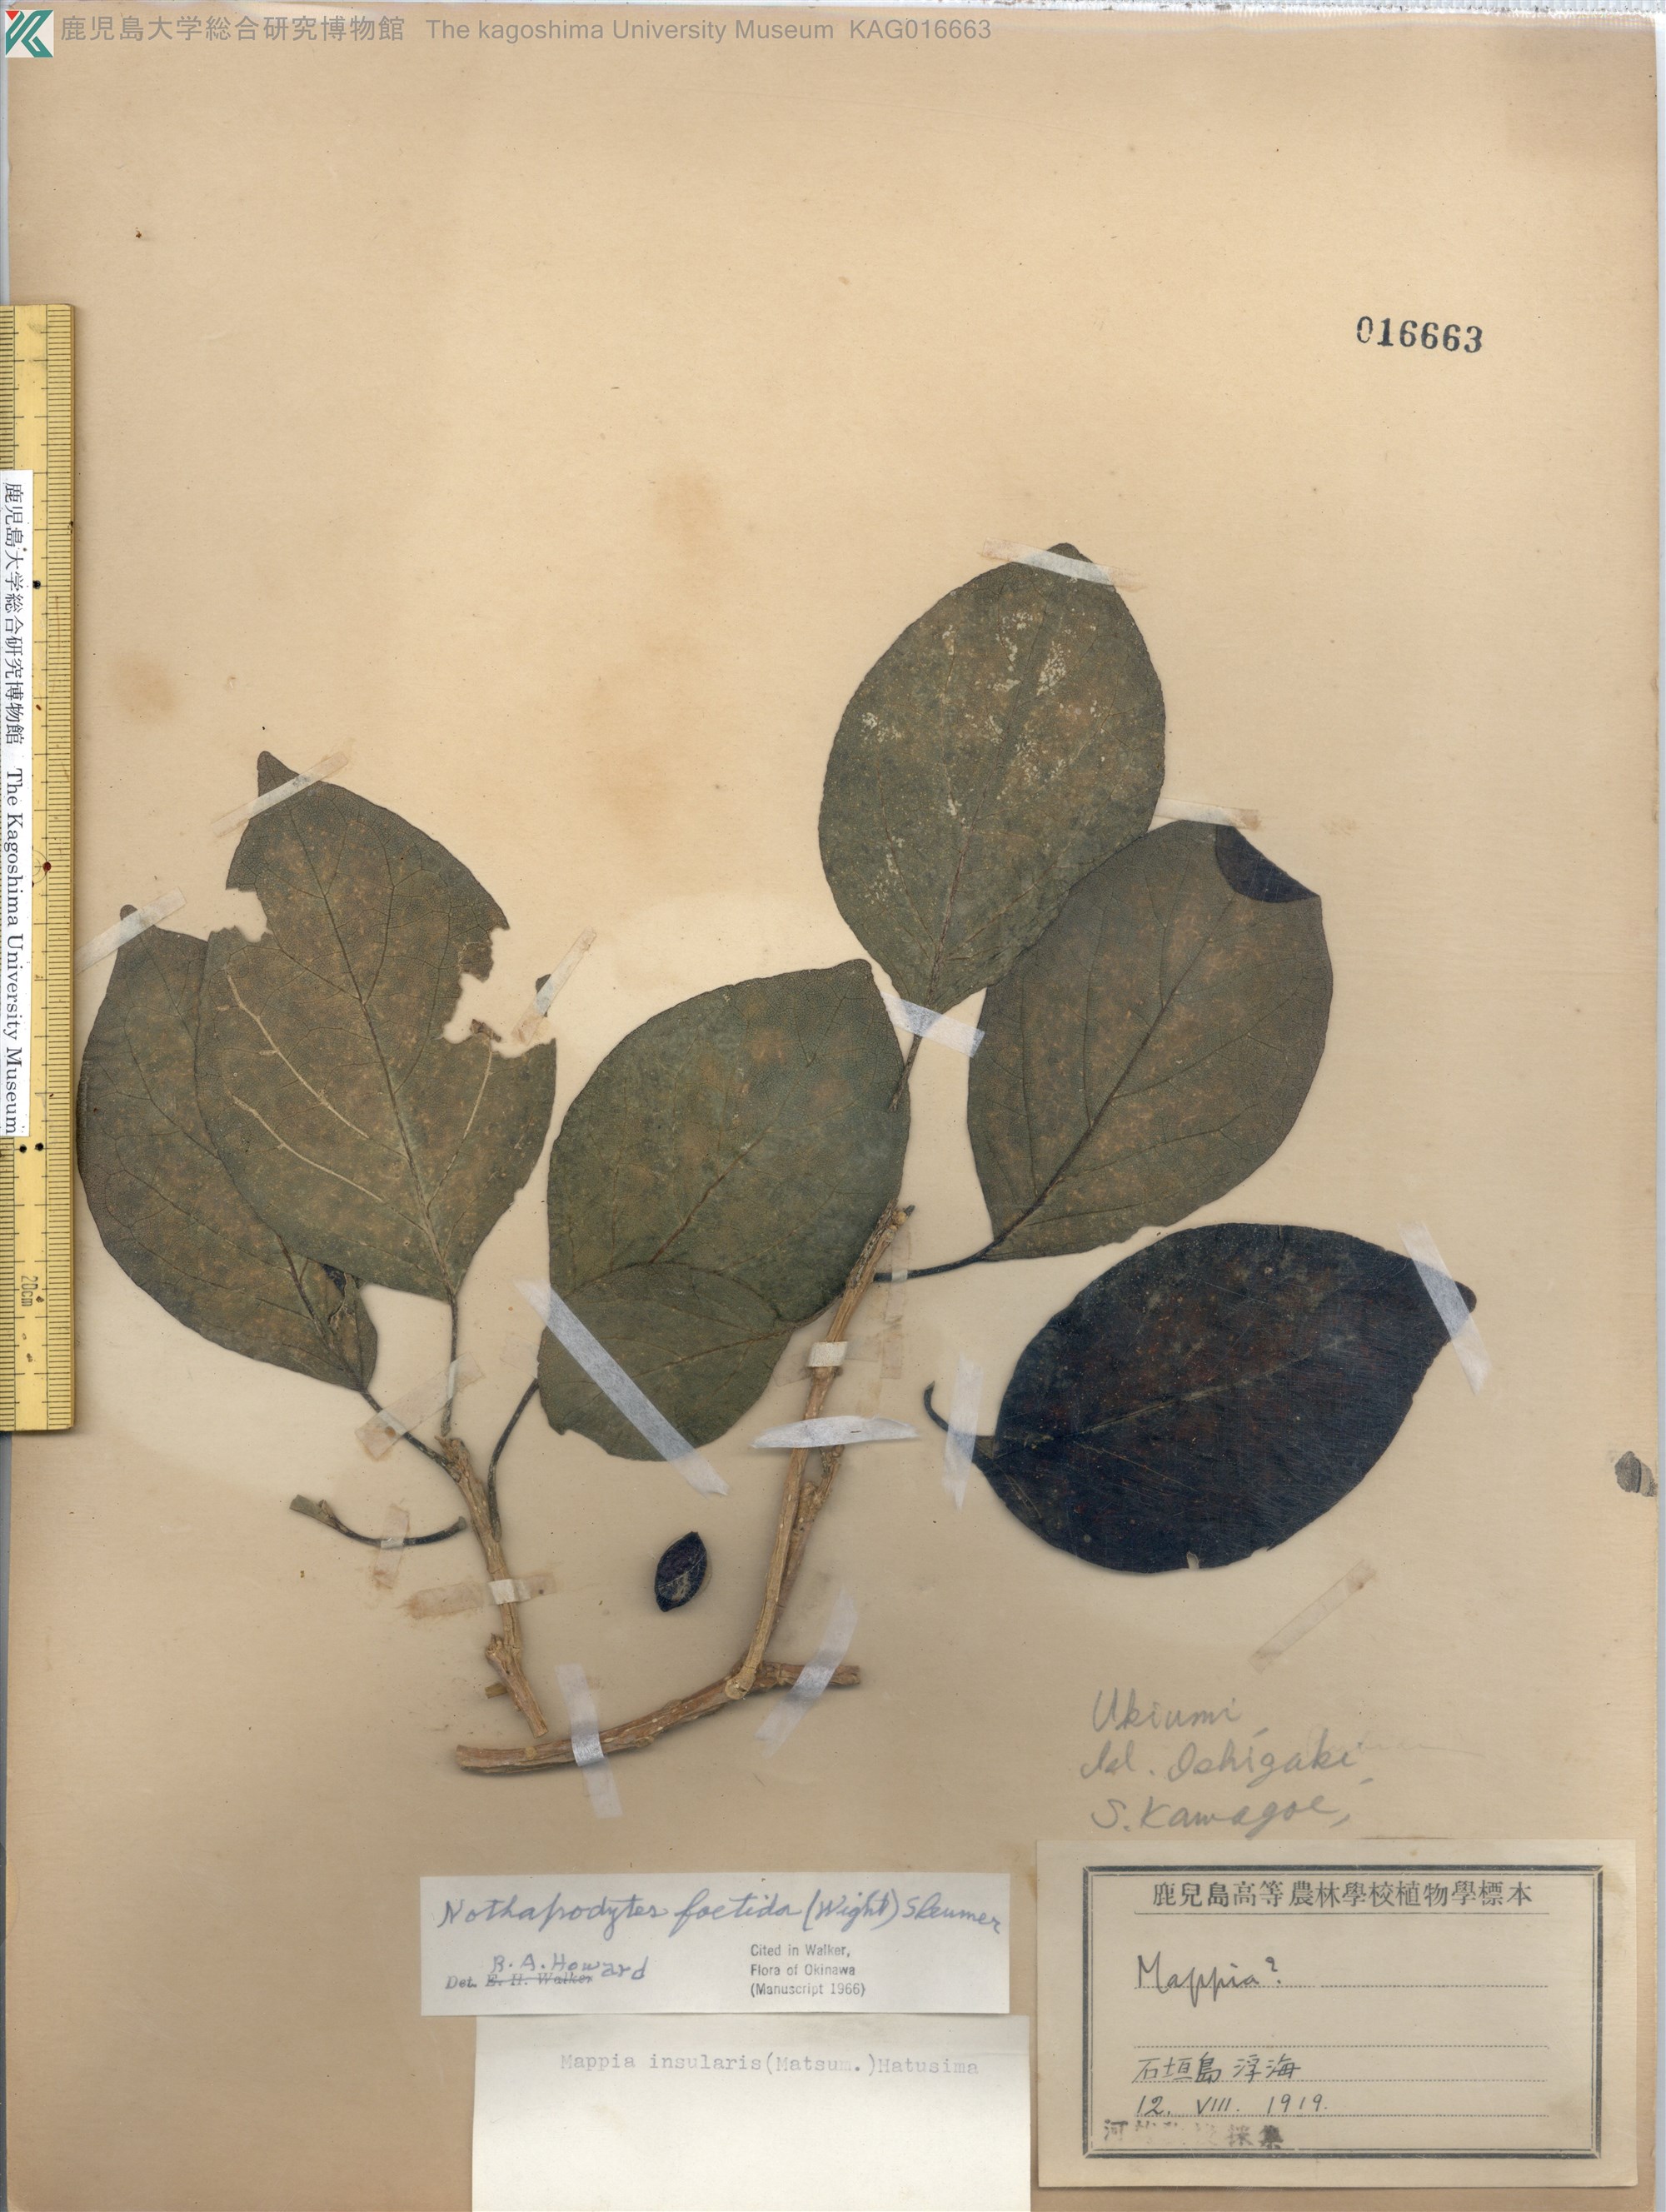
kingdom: Plantae
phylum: Tracheophyta
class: Magnoliopsida
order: Icacinales
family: Icacinaceae
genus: Nothapodytes
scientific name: Nothapodytes nimmoniana
